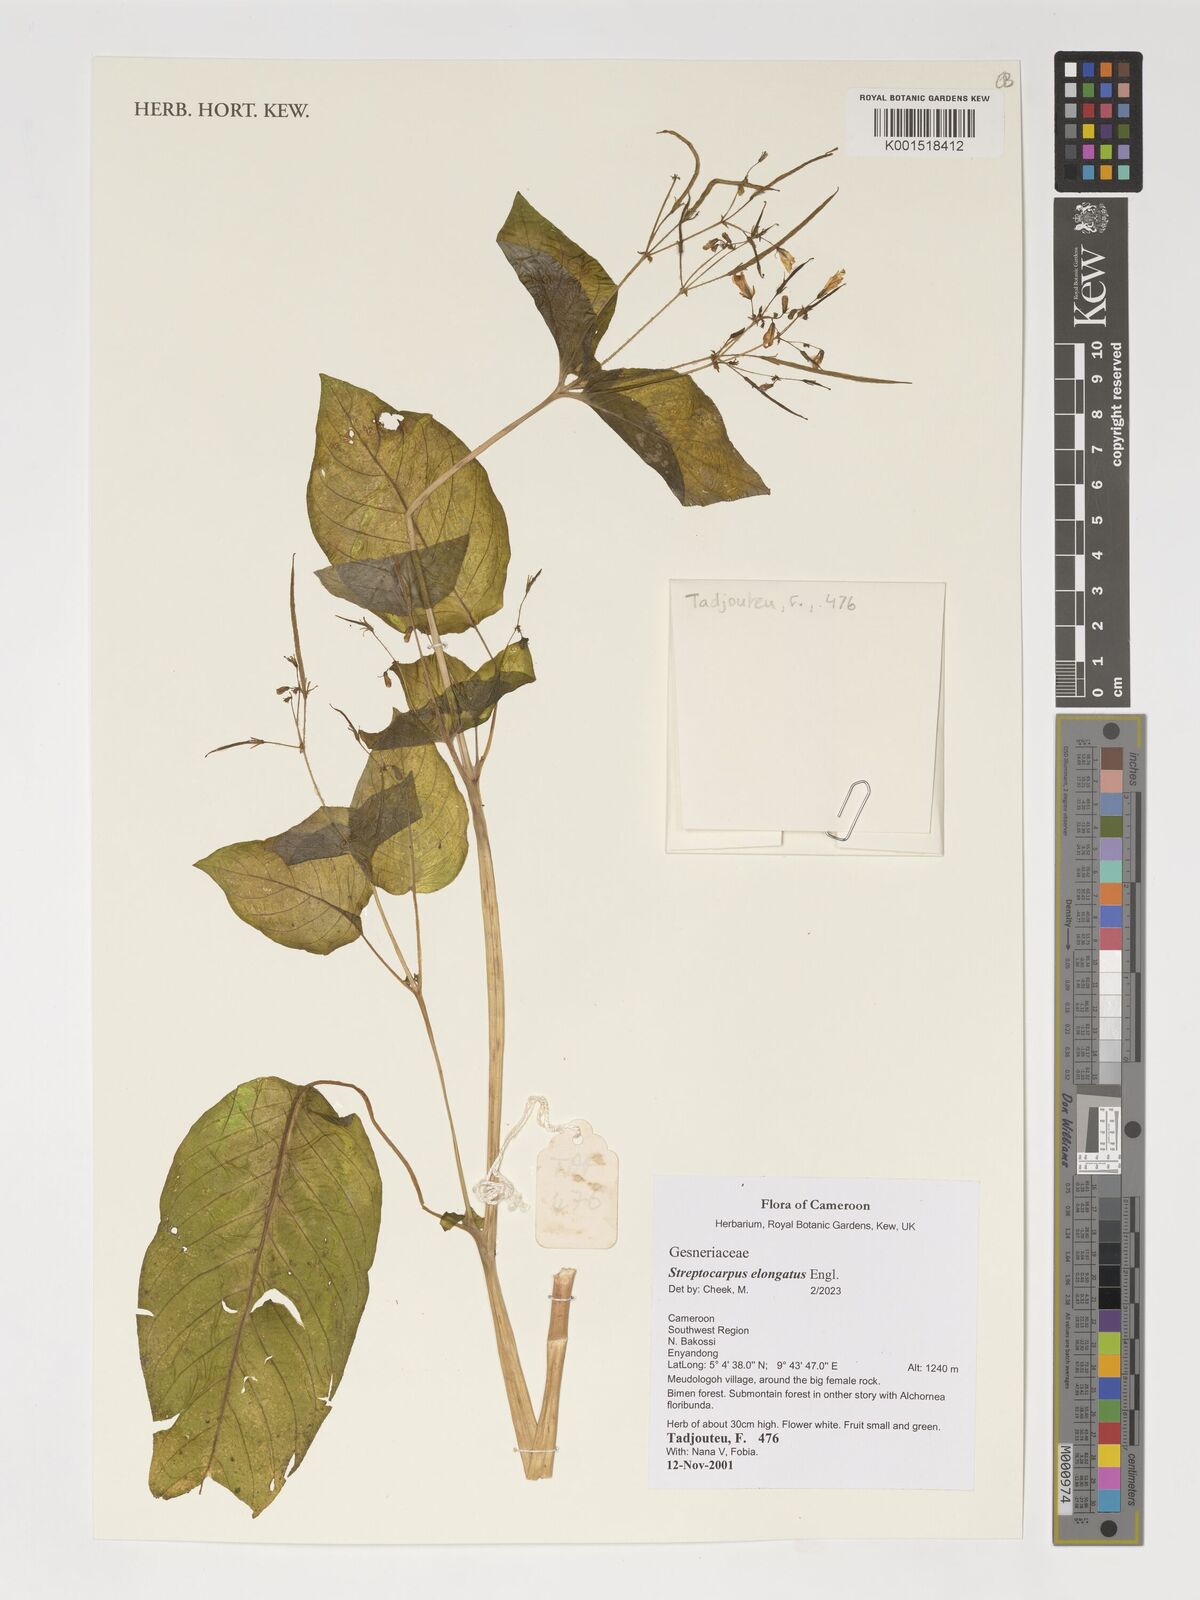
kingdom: Plantae
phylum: Tracheophyta
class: Magnoliopsida
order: Lamiales
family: Gesneriaceae
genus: Streptocarpus
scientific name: Streptocarpus elongatus
